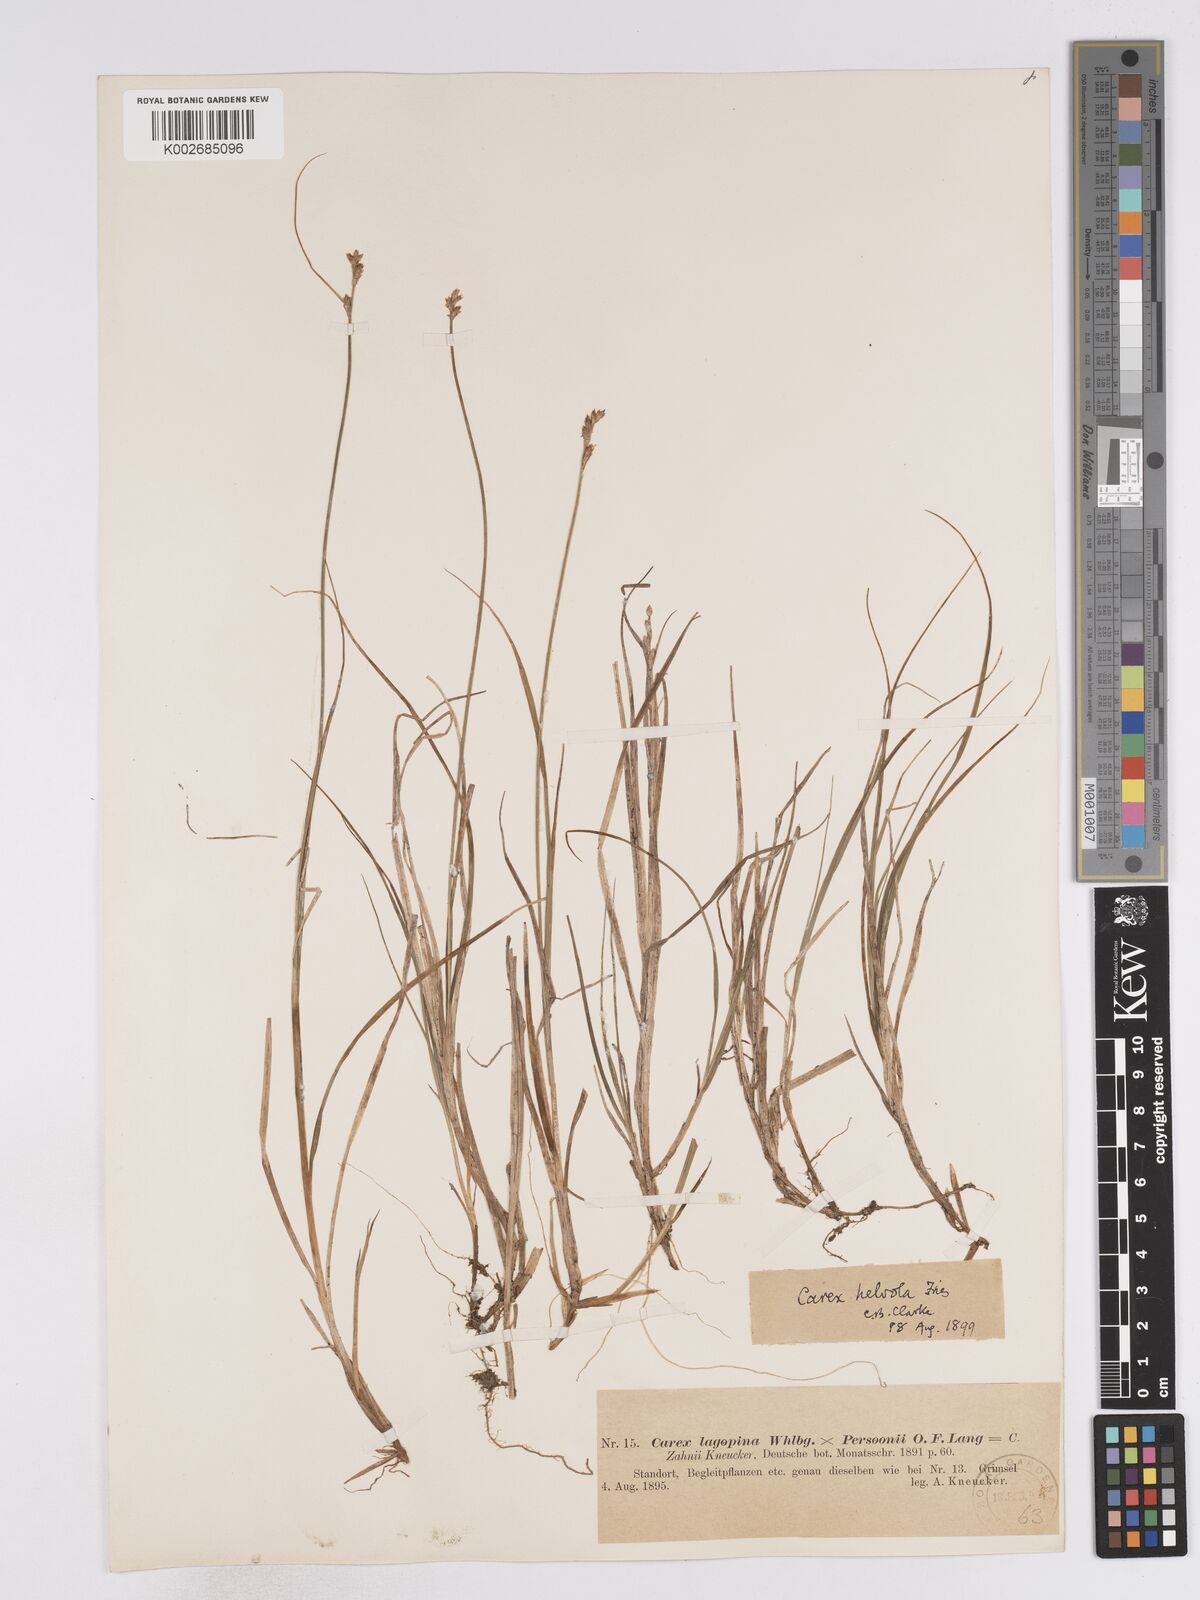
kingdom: Plantae
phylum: Tracheophyta
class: Liliopsida
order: Poales
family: Cyperaceae
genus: Carex
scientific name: Carex brunnescens
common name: Brown sedge
